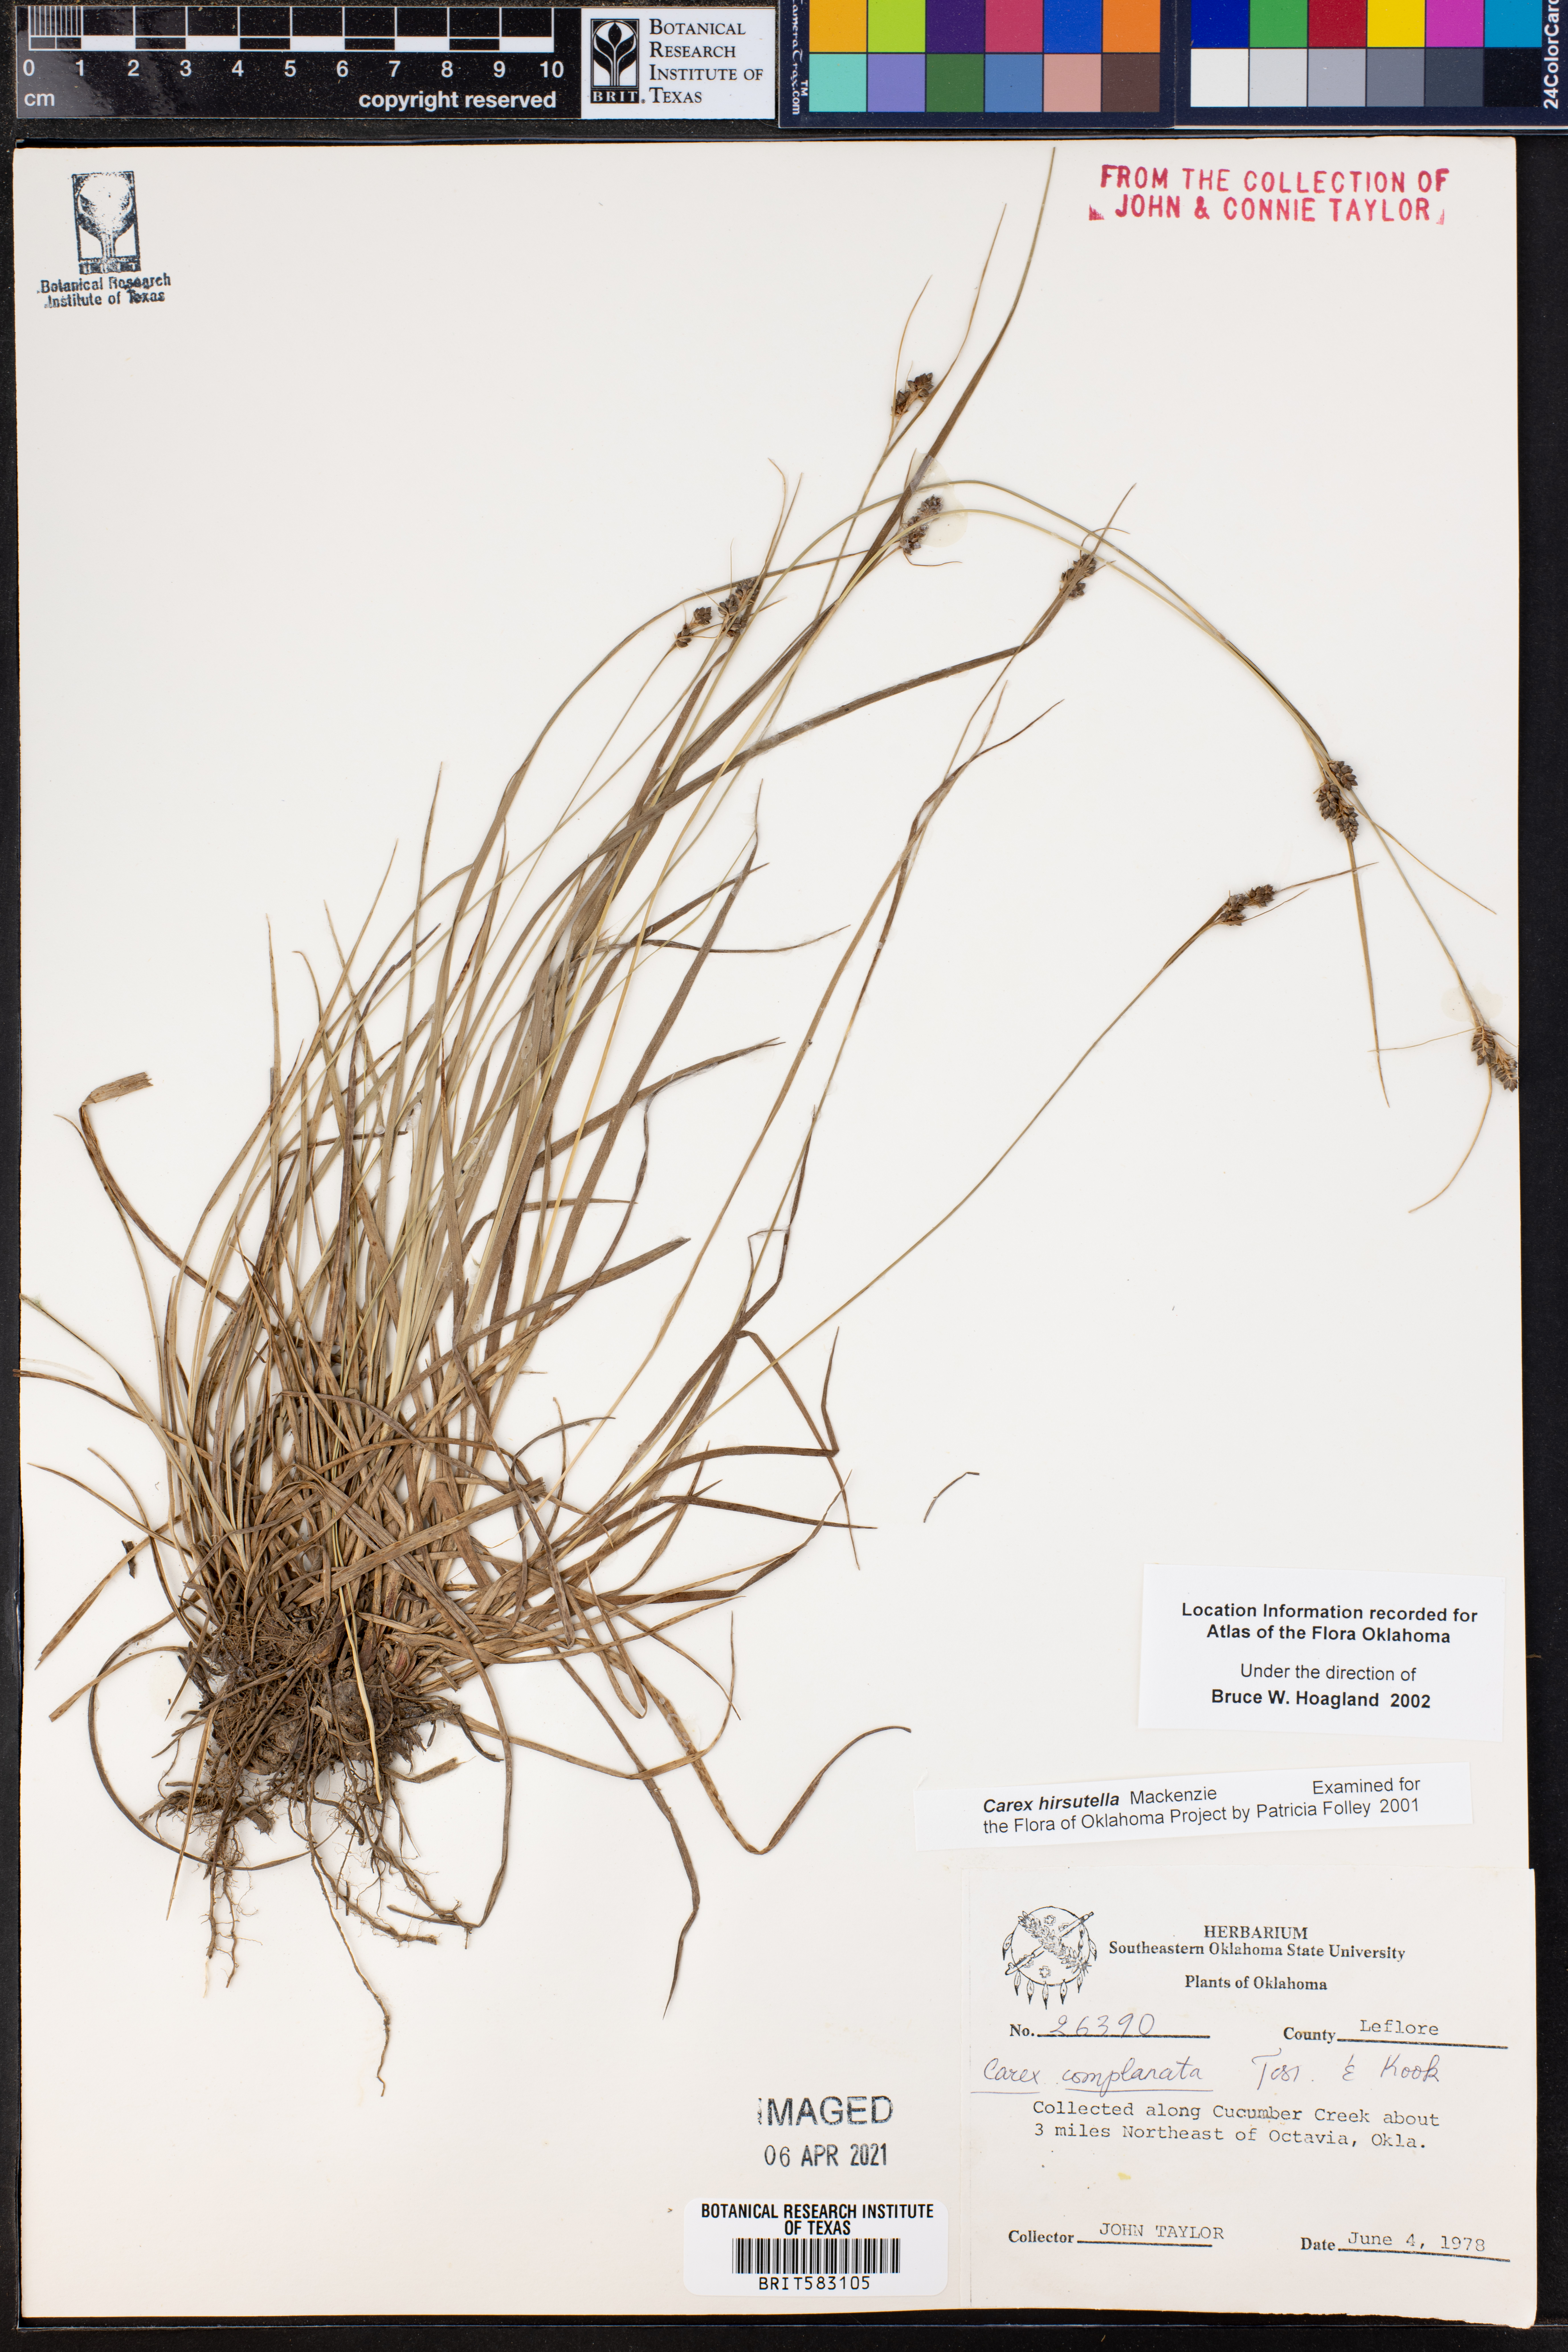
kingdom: Plantae
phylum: Tracheophyta
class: Liliopsida
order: Poales
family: Cyperaceae
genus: Carex
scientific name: Carex hirsutella
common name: Fuzzy wuzzy sedge
